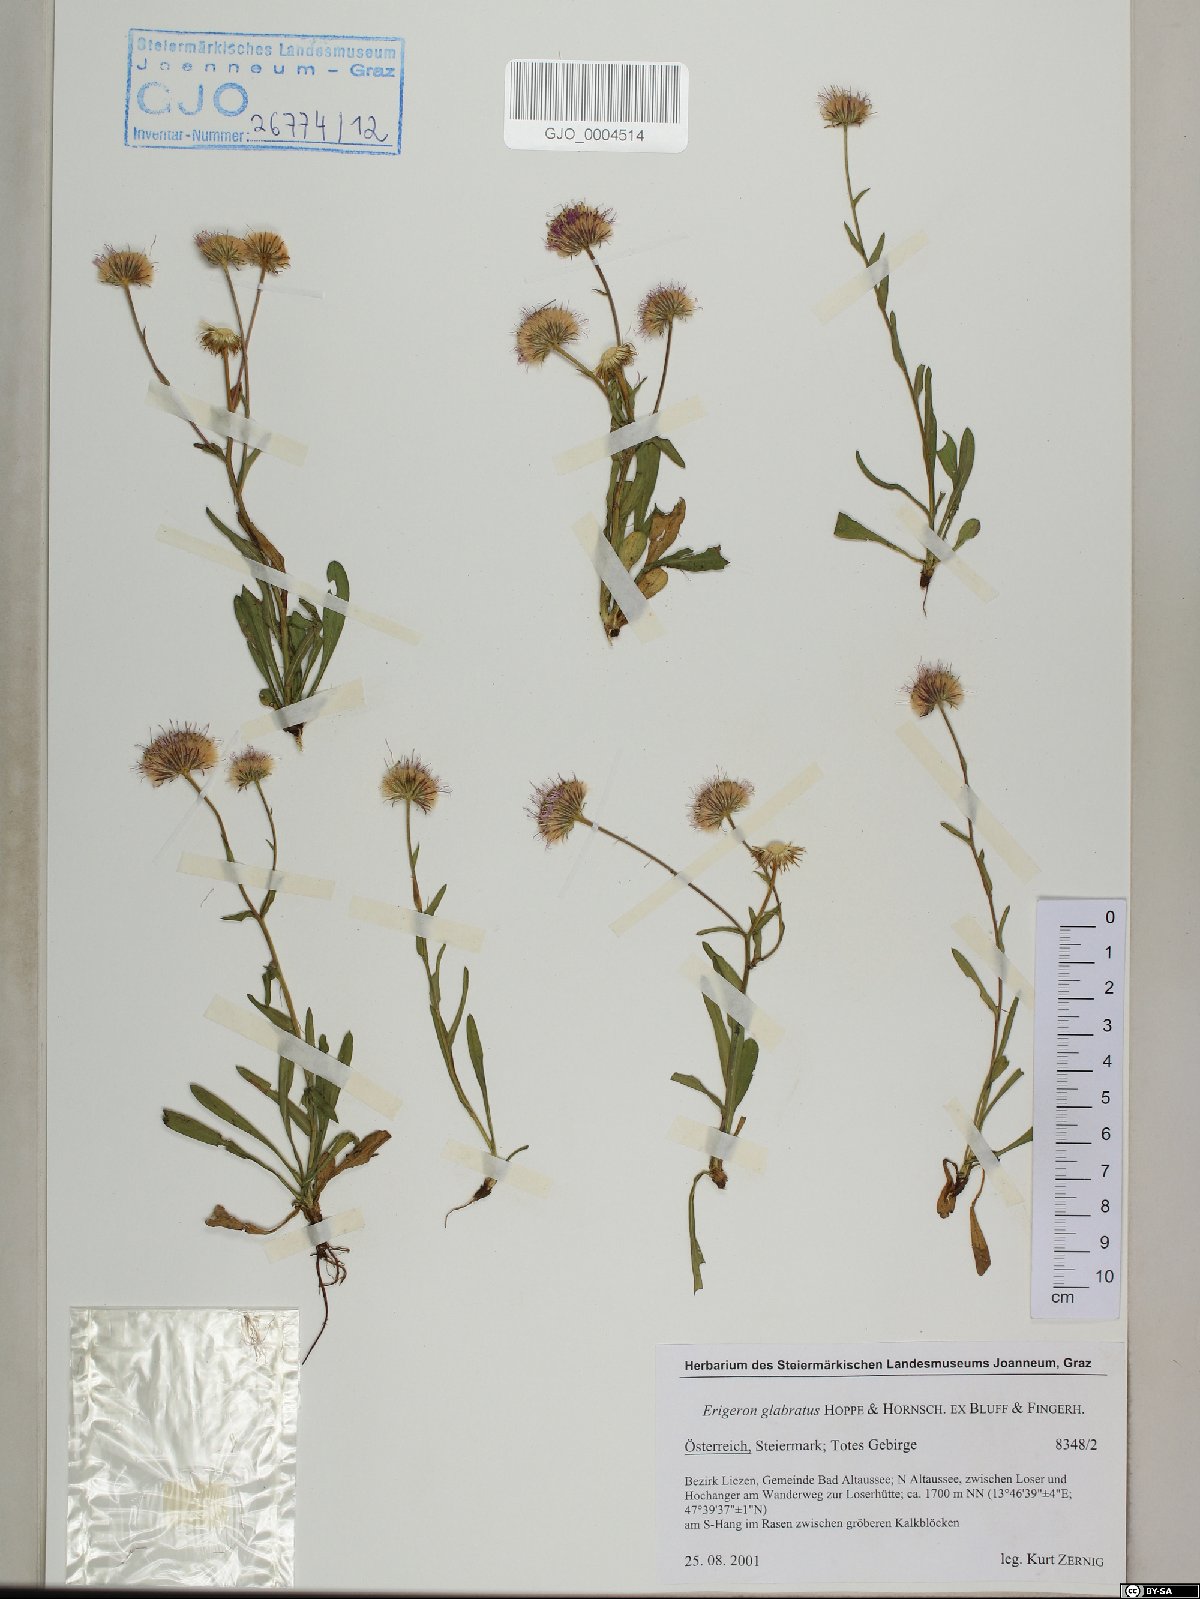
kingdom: Plantae
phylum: Tracheophyta
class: Magnoliopsida
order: Asterales
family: Asteraceae
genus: Erigeron
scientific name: Erigeron glabratus
